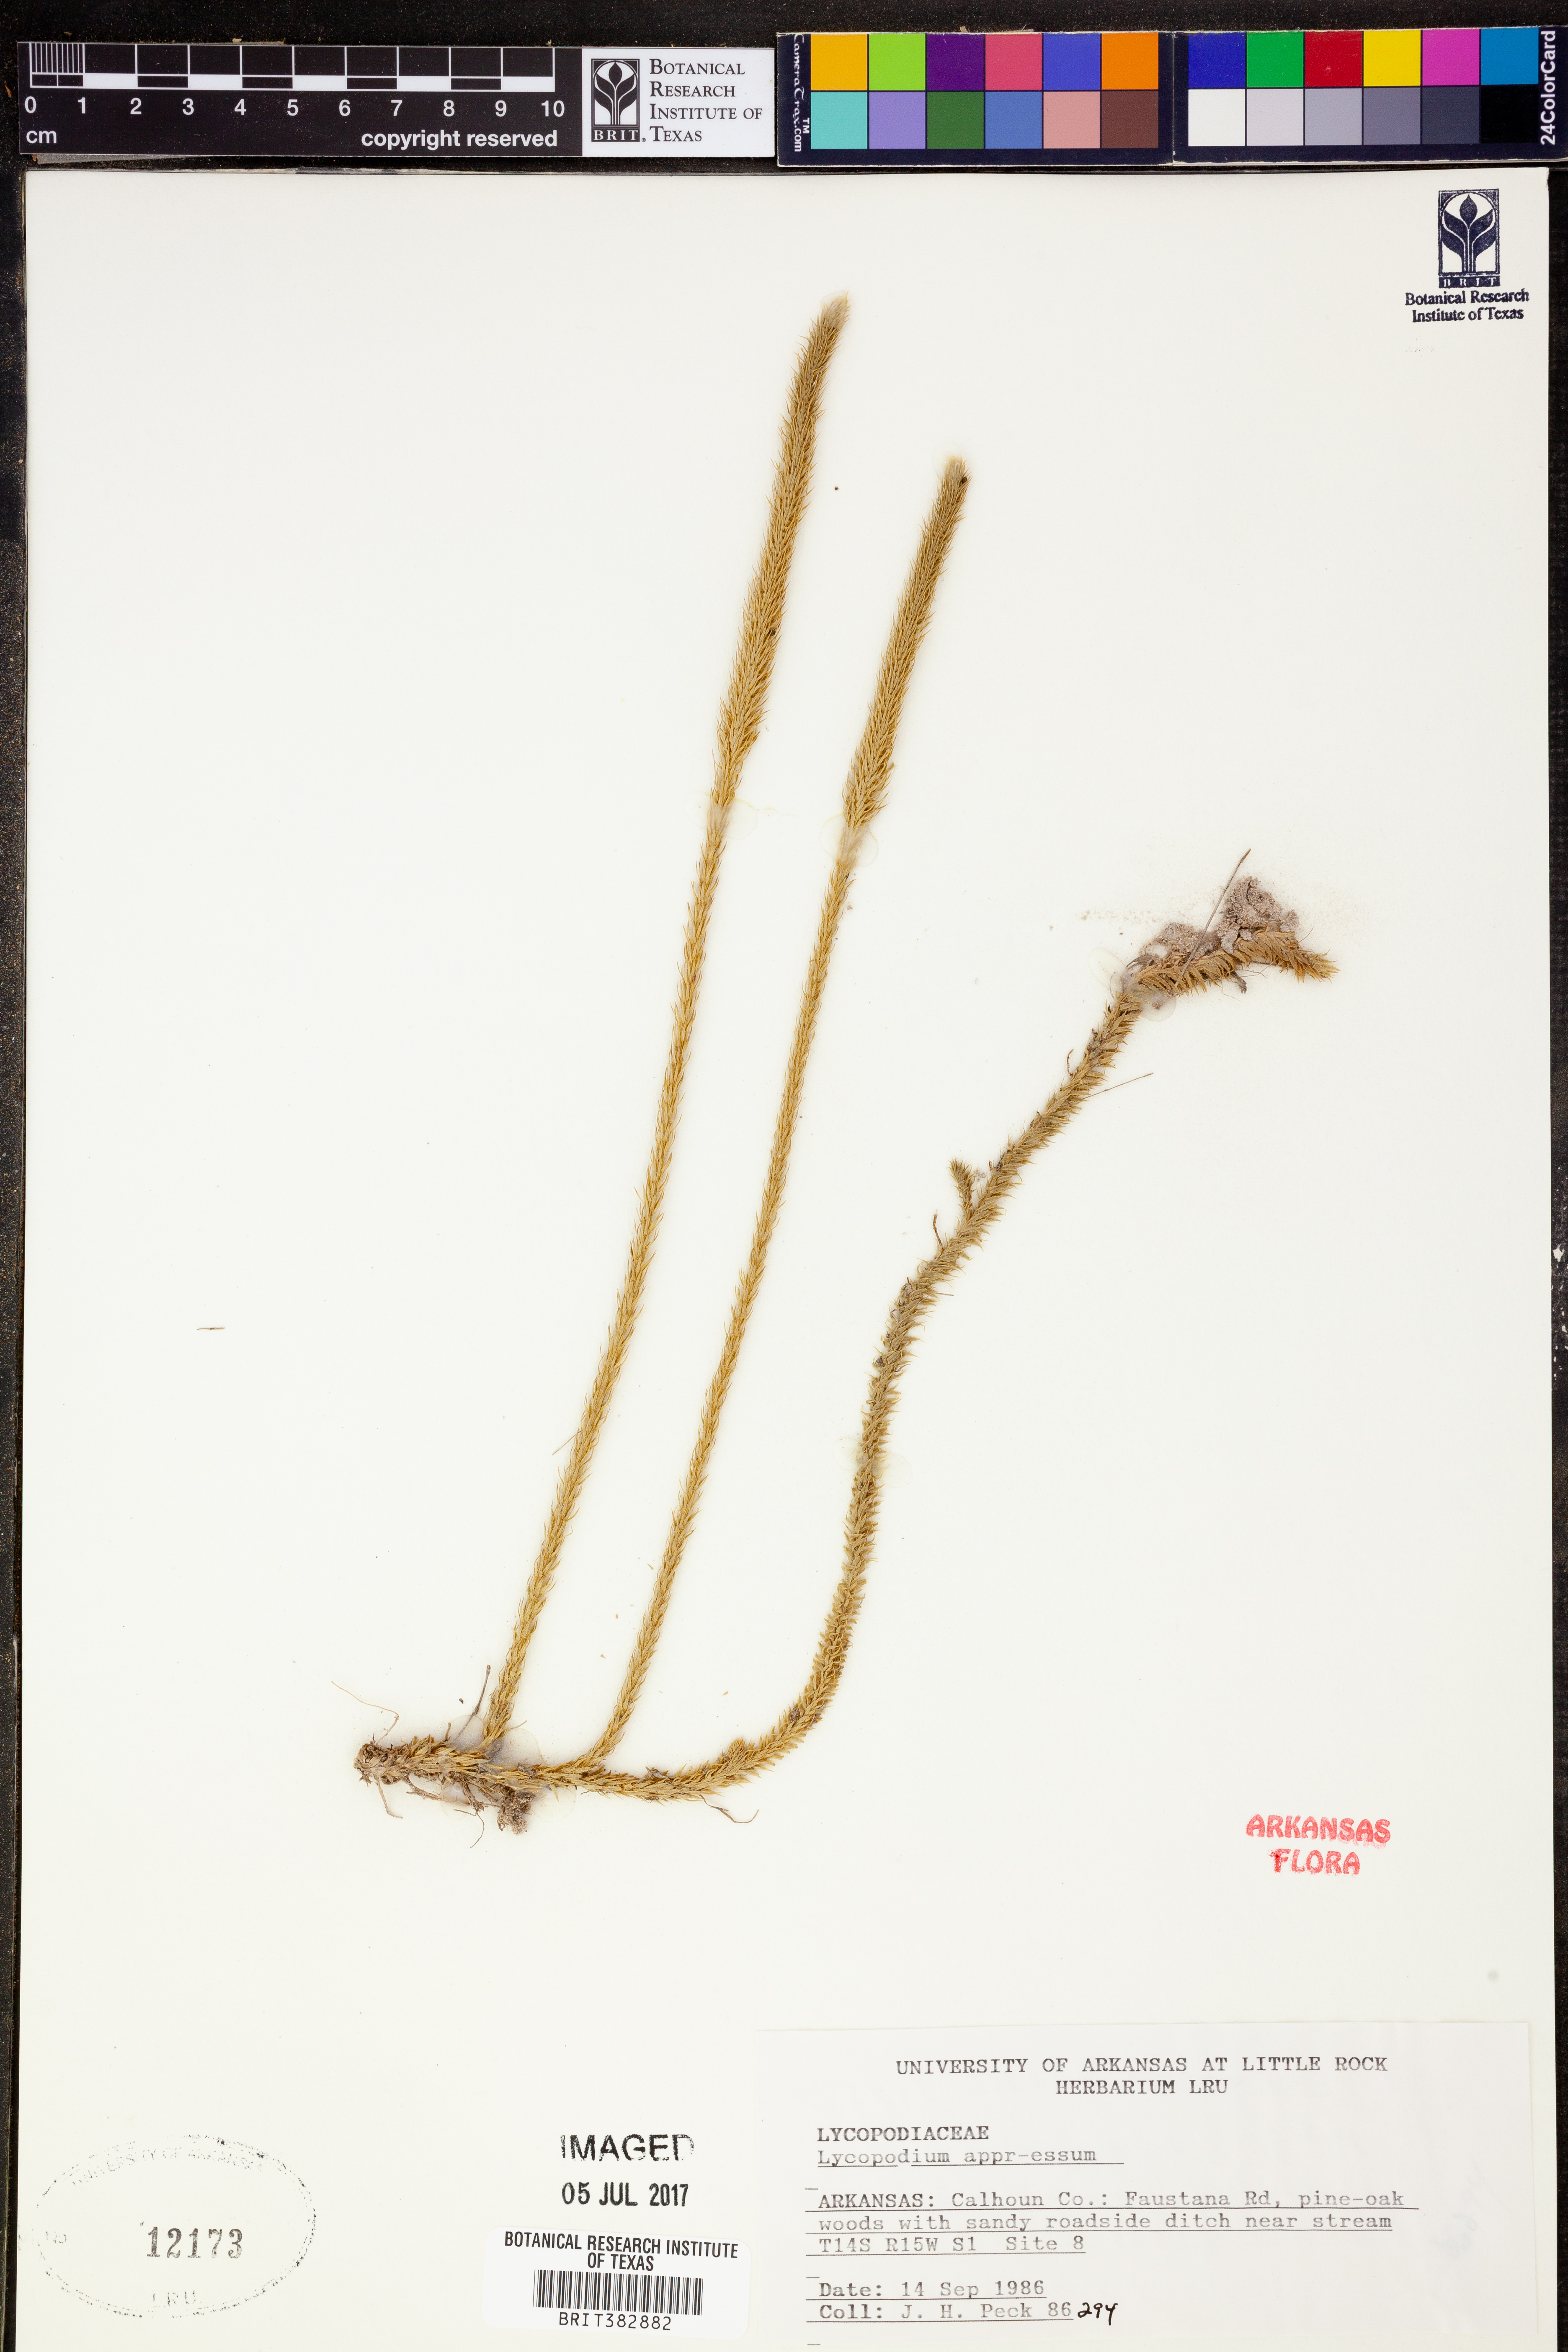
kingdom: Plantae
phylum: Tracheophyta
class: Lycopodiopsida
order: Lycopodiales
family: Lycopodiaceae
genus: Lycopodiella
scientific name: Lycopodiella appressa
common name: Appressed bog clubmoss
